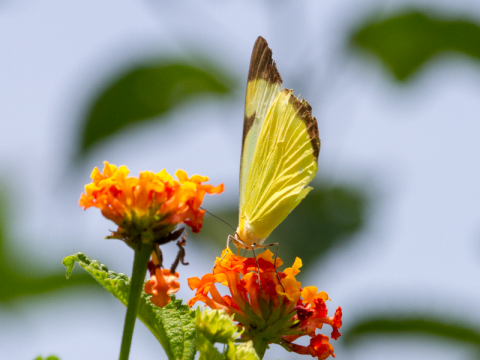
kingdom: Animalia
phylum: Arthropoda
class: Insecta
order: Lepidoptera
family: Pieridae
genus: Melete
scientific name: Melete lycimnia
